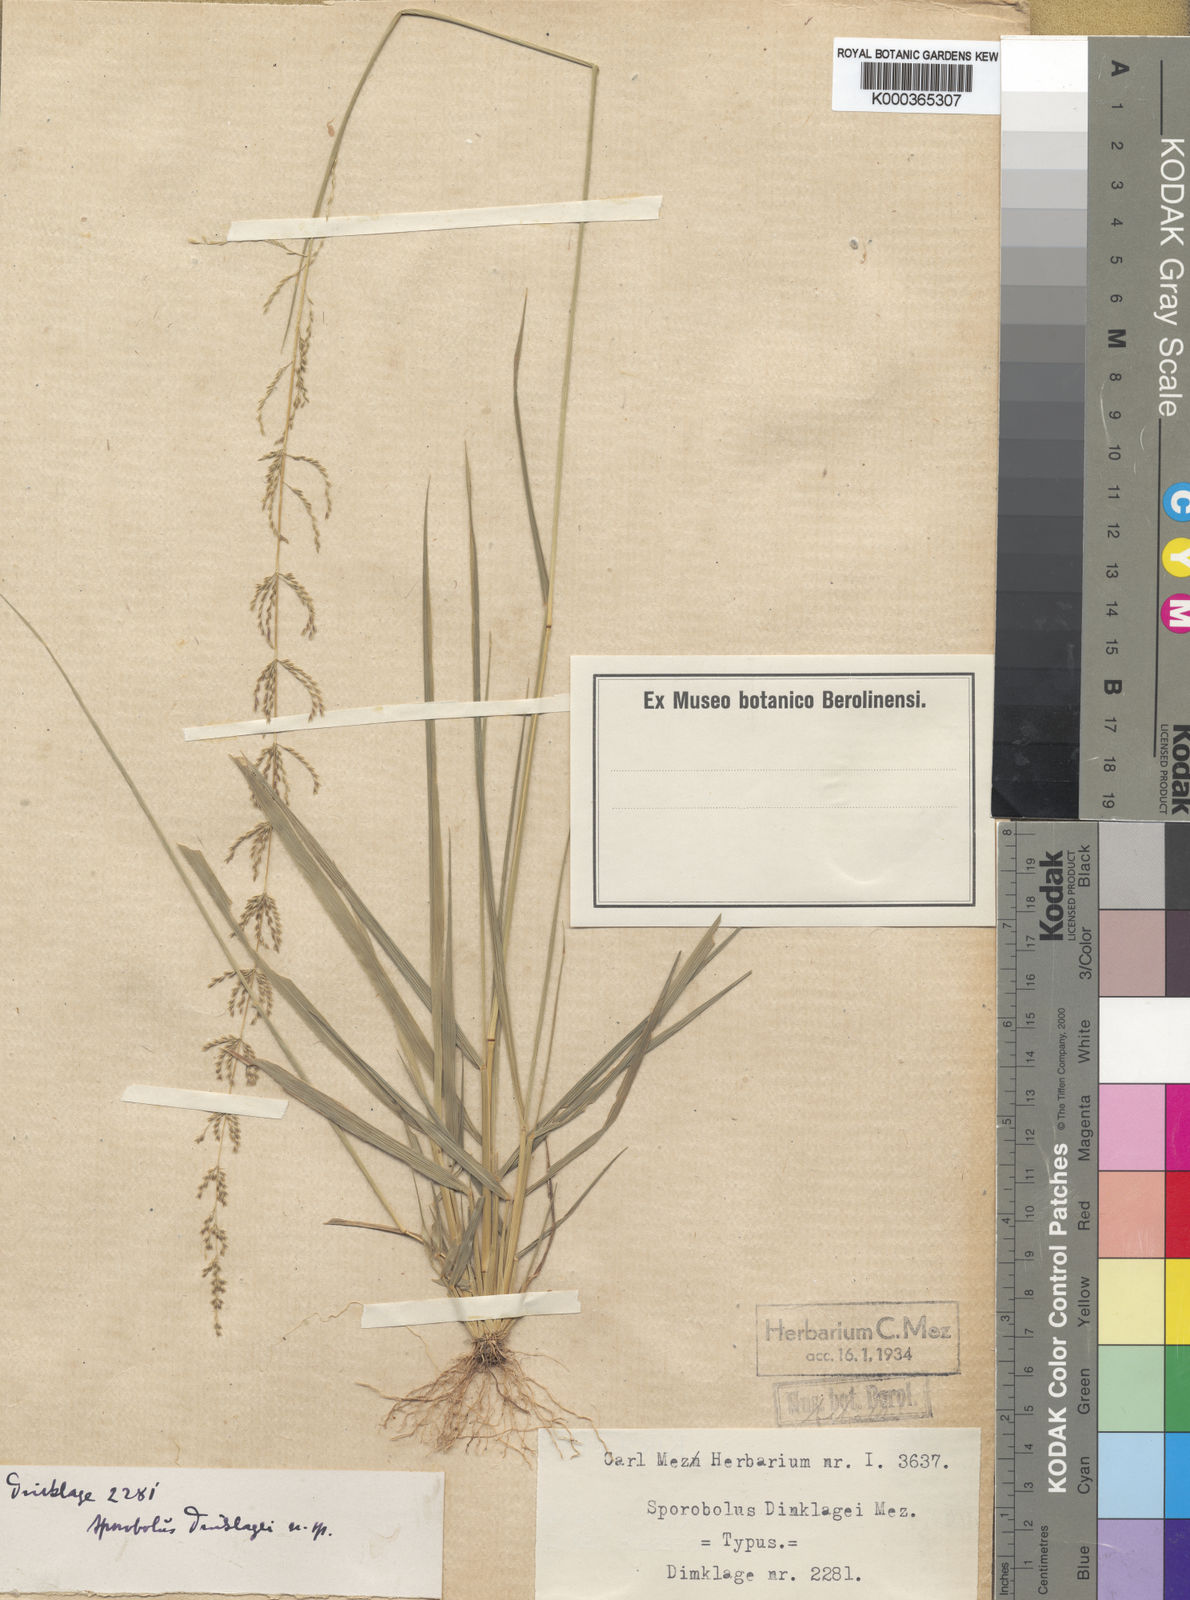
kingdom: Plantae
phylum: Tracheophyta
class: Liliopsida
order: Poales
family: Poaceae
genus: Sporobolus
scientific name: Sporobolus dinklagei
